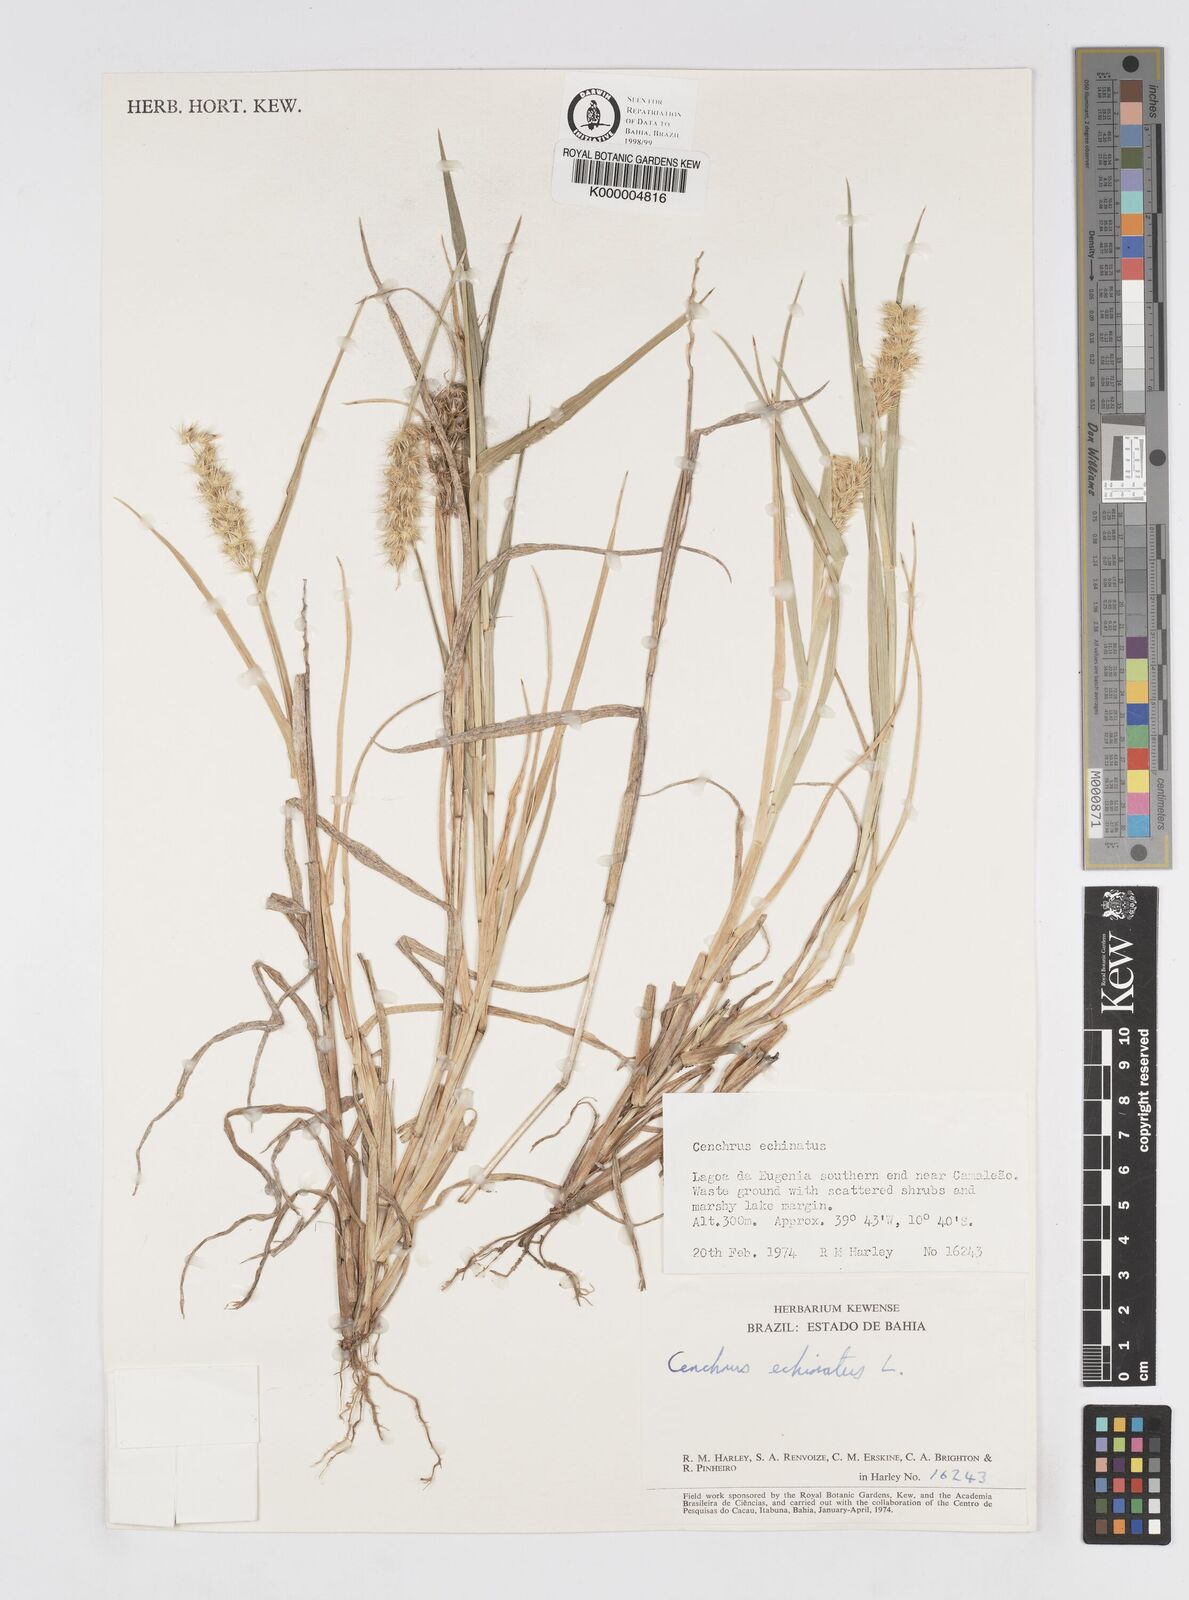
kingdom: Plantae
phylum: Tracheophyta
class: Liliopsida
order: Poales
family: Poaceae
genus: Cenchrus
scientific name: Cenchrus echinatus
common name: Southern sandbur
